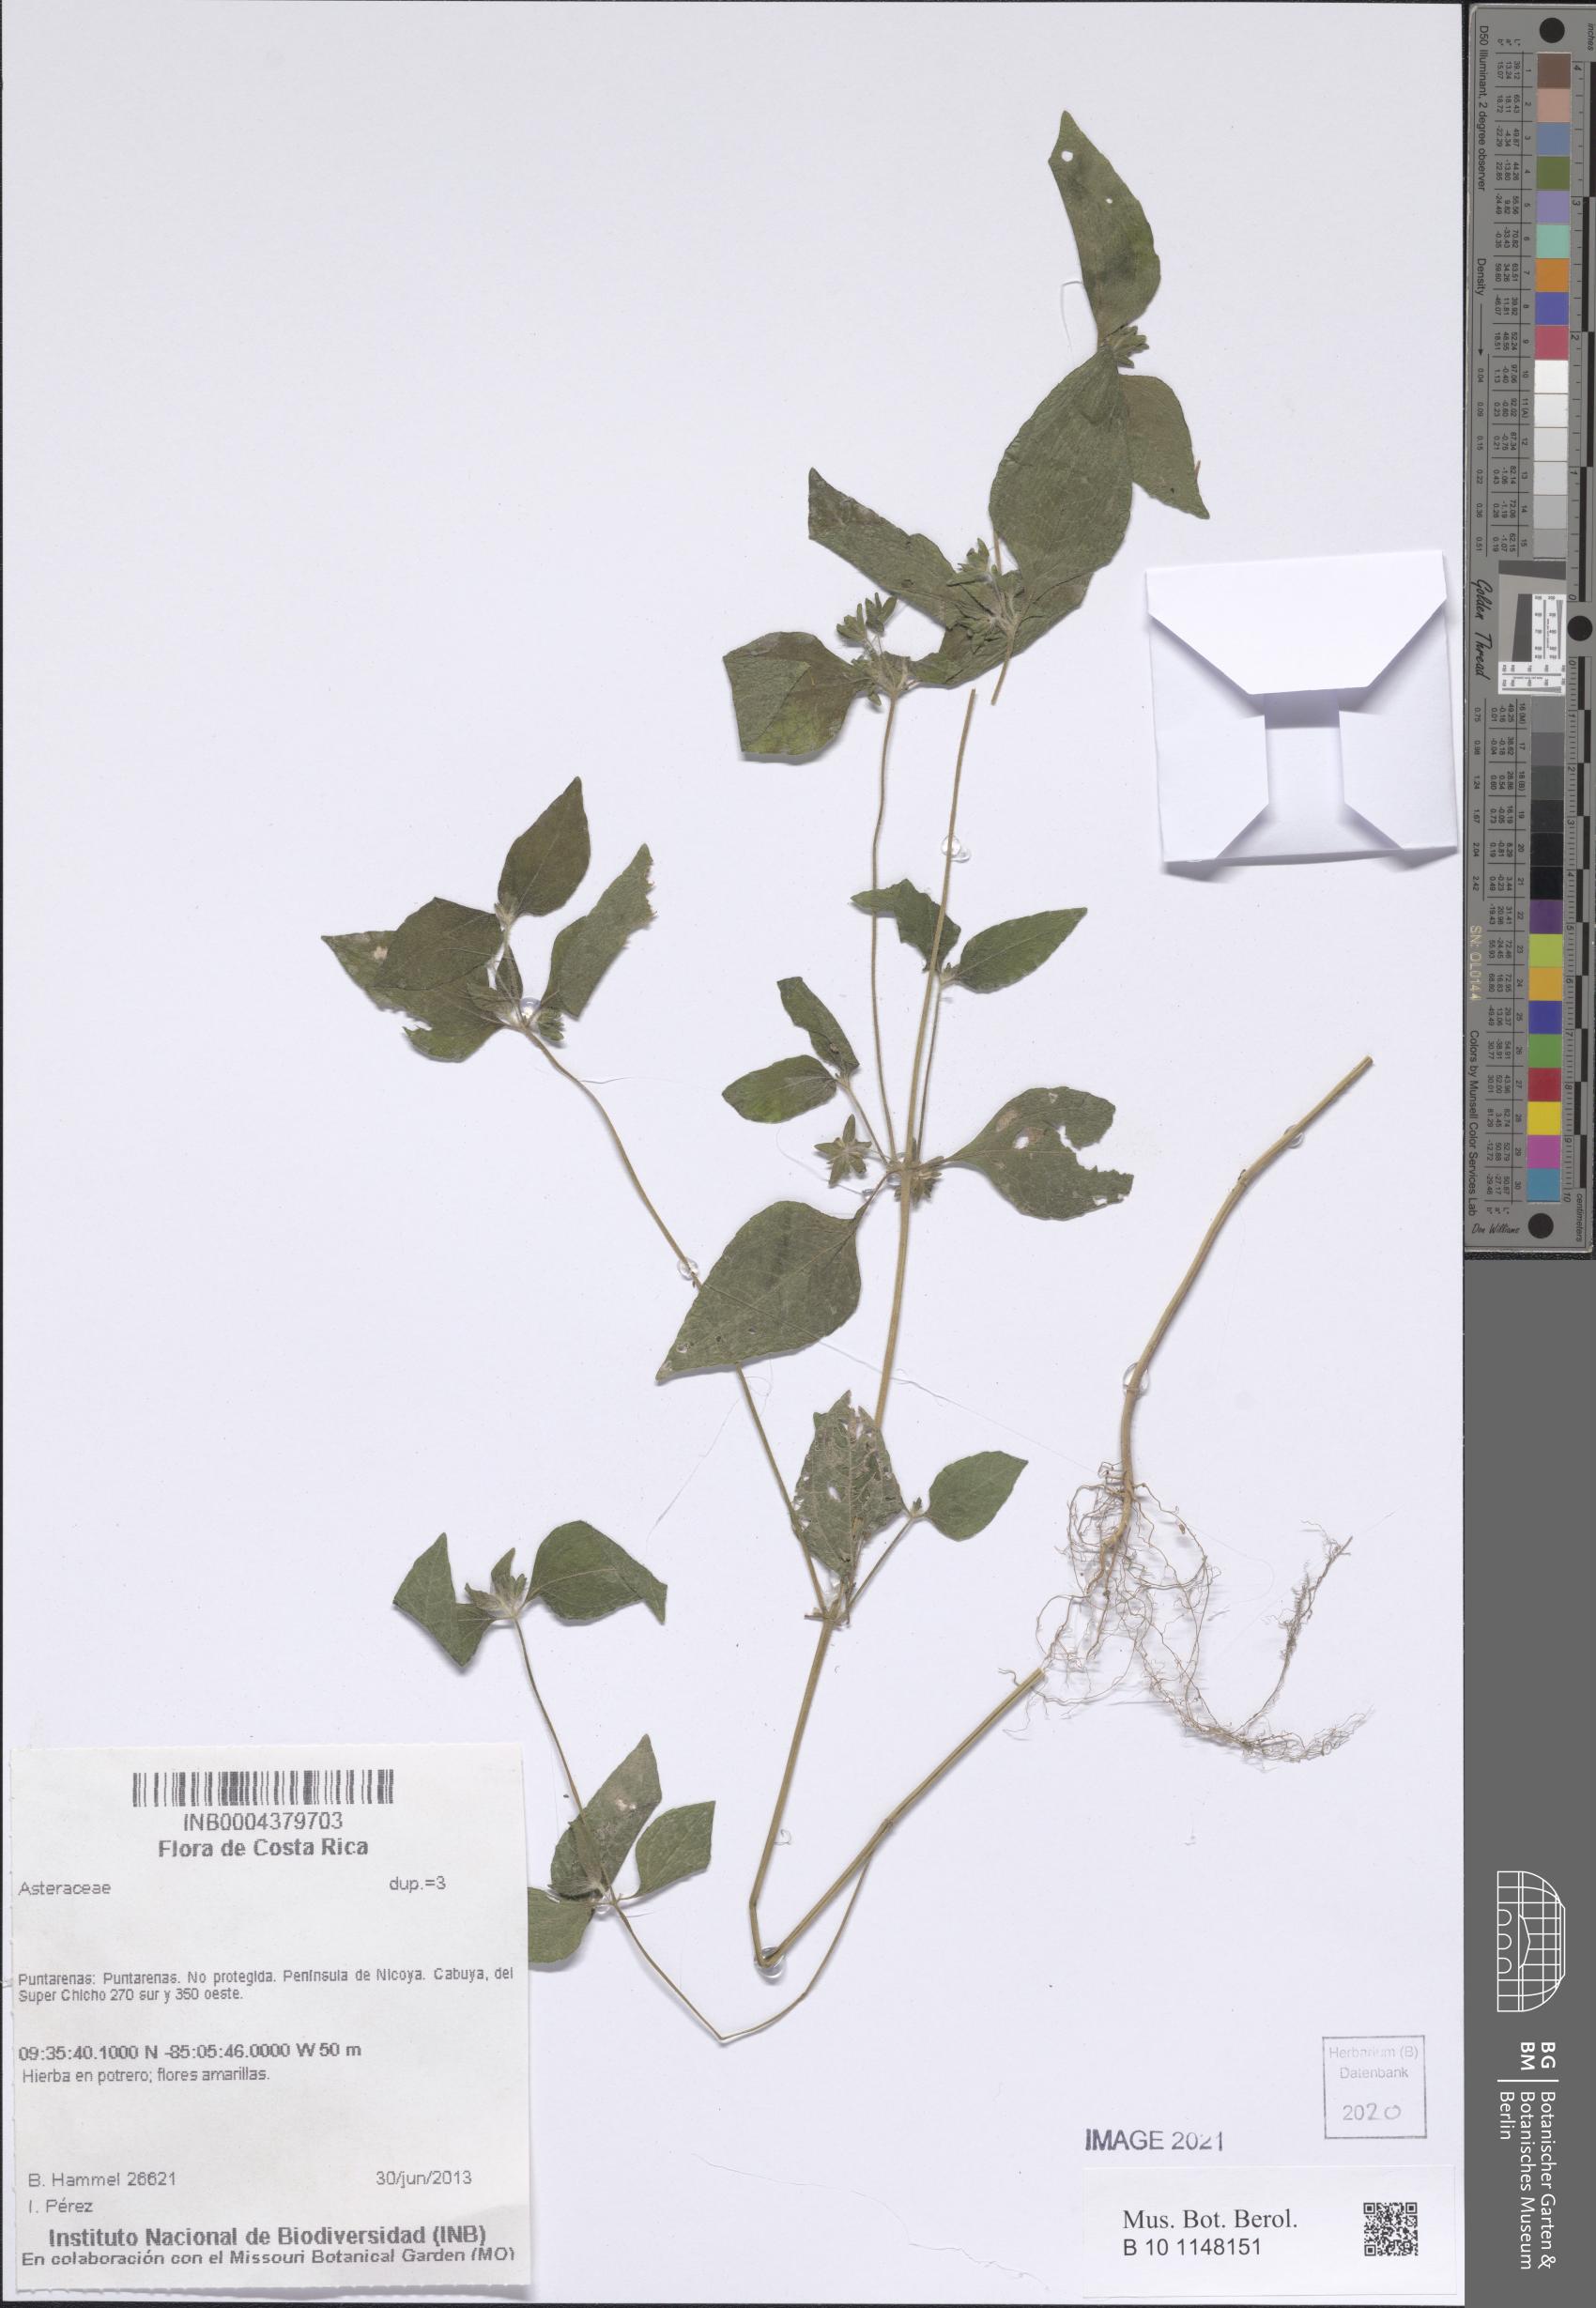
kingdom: Plantae
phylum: Tracheophyta
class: Magnoliopsida
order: Asterales
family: Asteraceae
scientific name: Asteraceae
